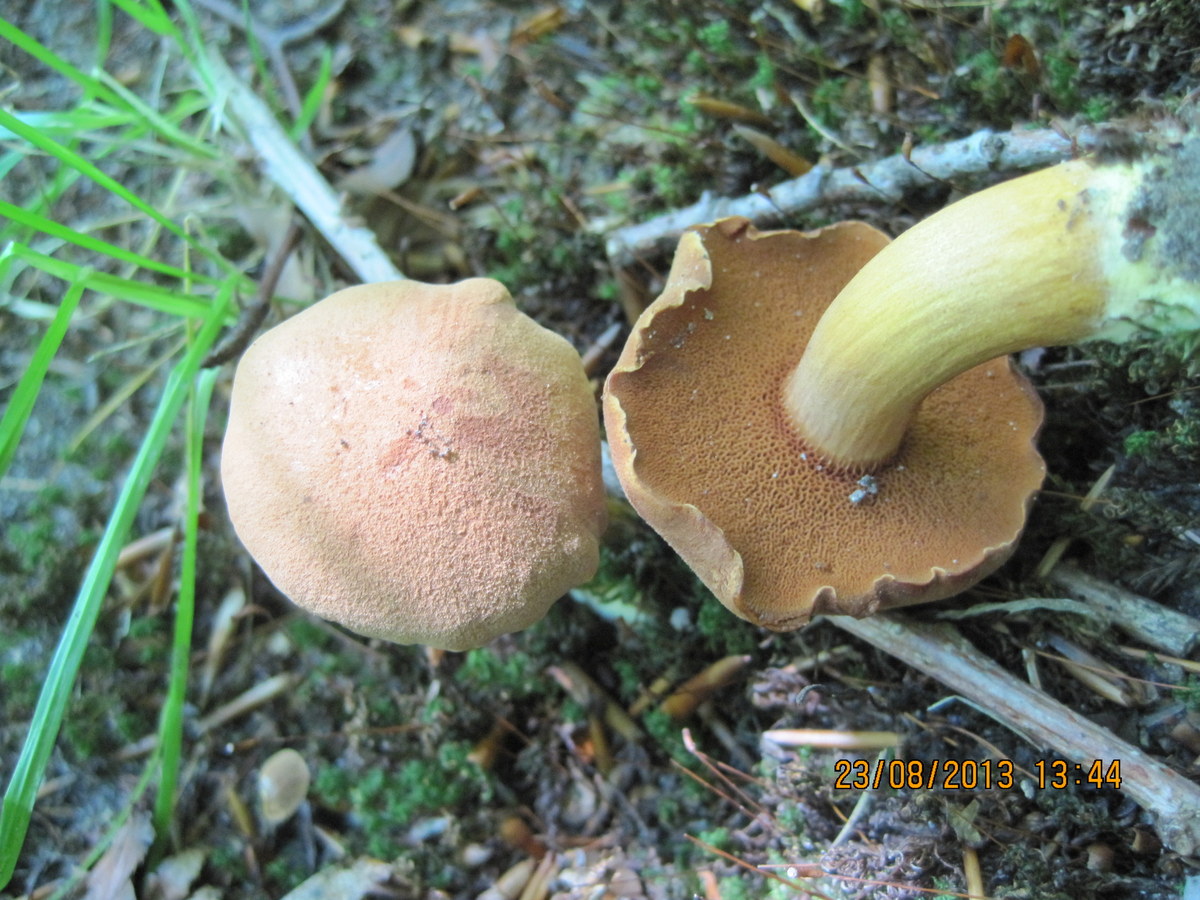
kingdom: Fungi
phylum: Basidiomycota
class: Agaricomycetes
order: Boletales
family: Boletaceae
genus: Chalciporus
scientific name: Chalciporus piperatus
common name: peberrørhat
